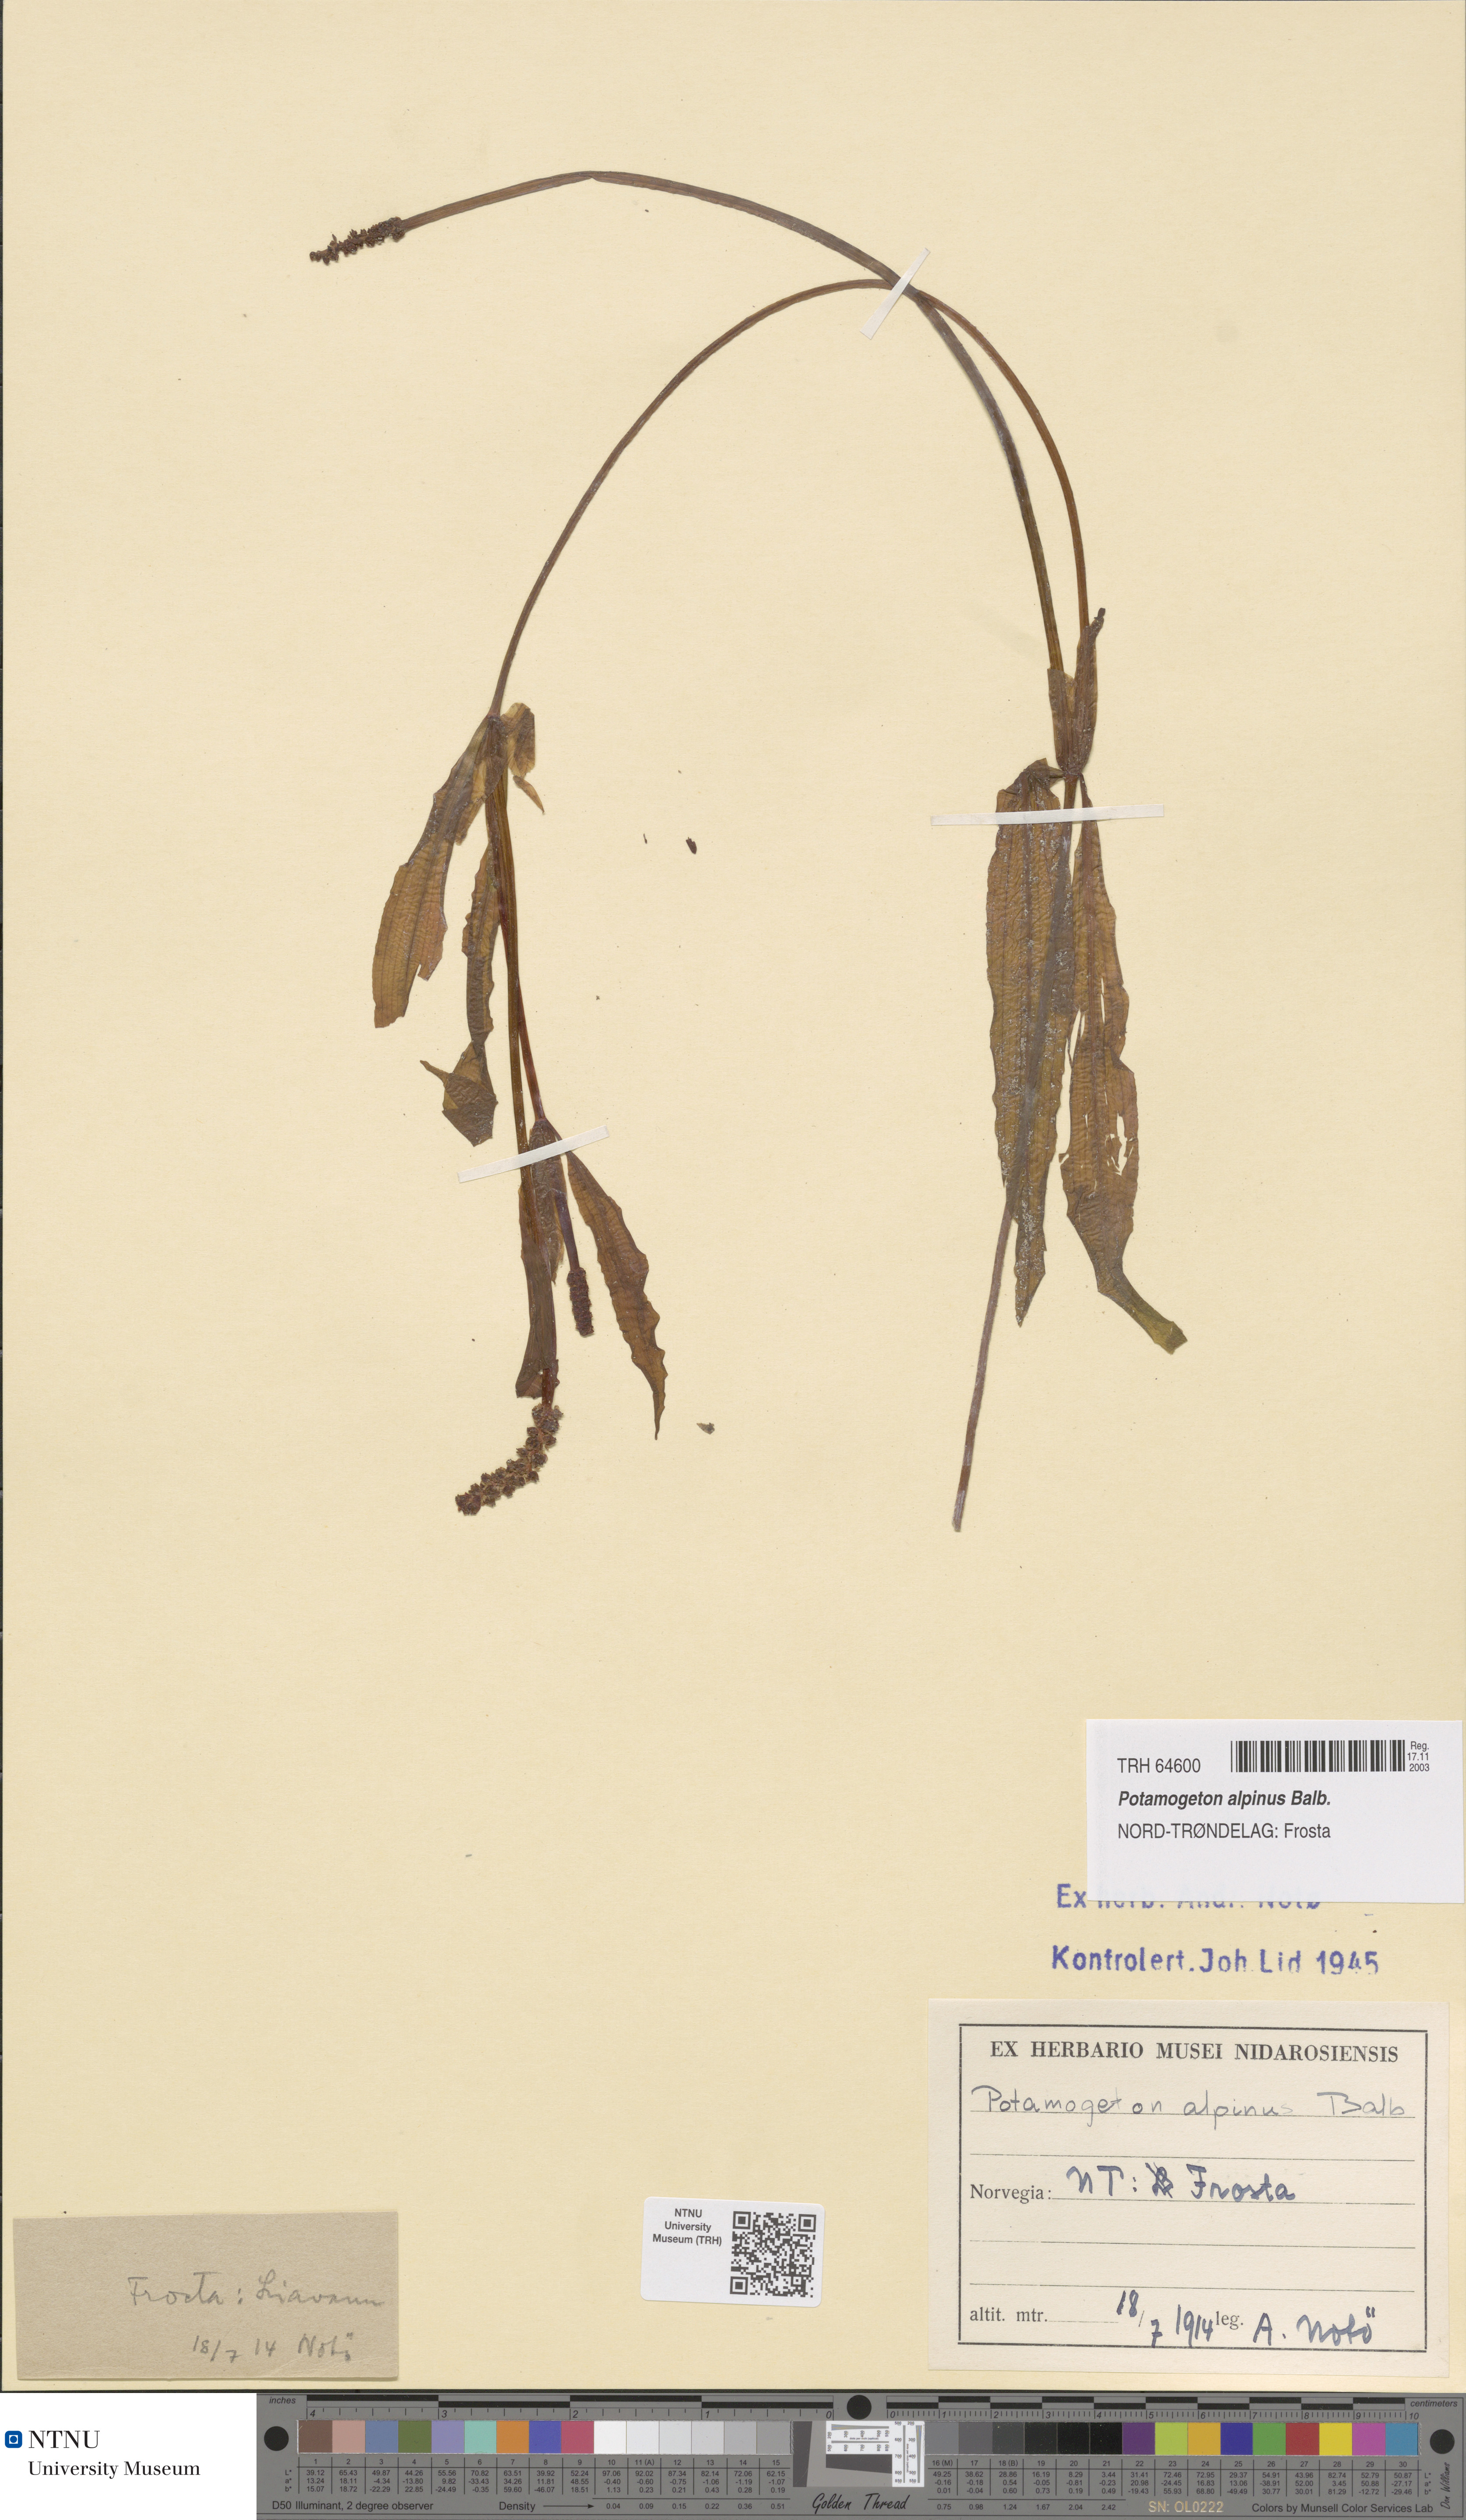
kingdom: Plantae
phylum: Tracheophyta
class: Liliopsida
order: Alismatales
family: Potamogetonaceae
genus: Potamogeton
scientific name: Potamogeton alpinus
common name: Red pondweed
